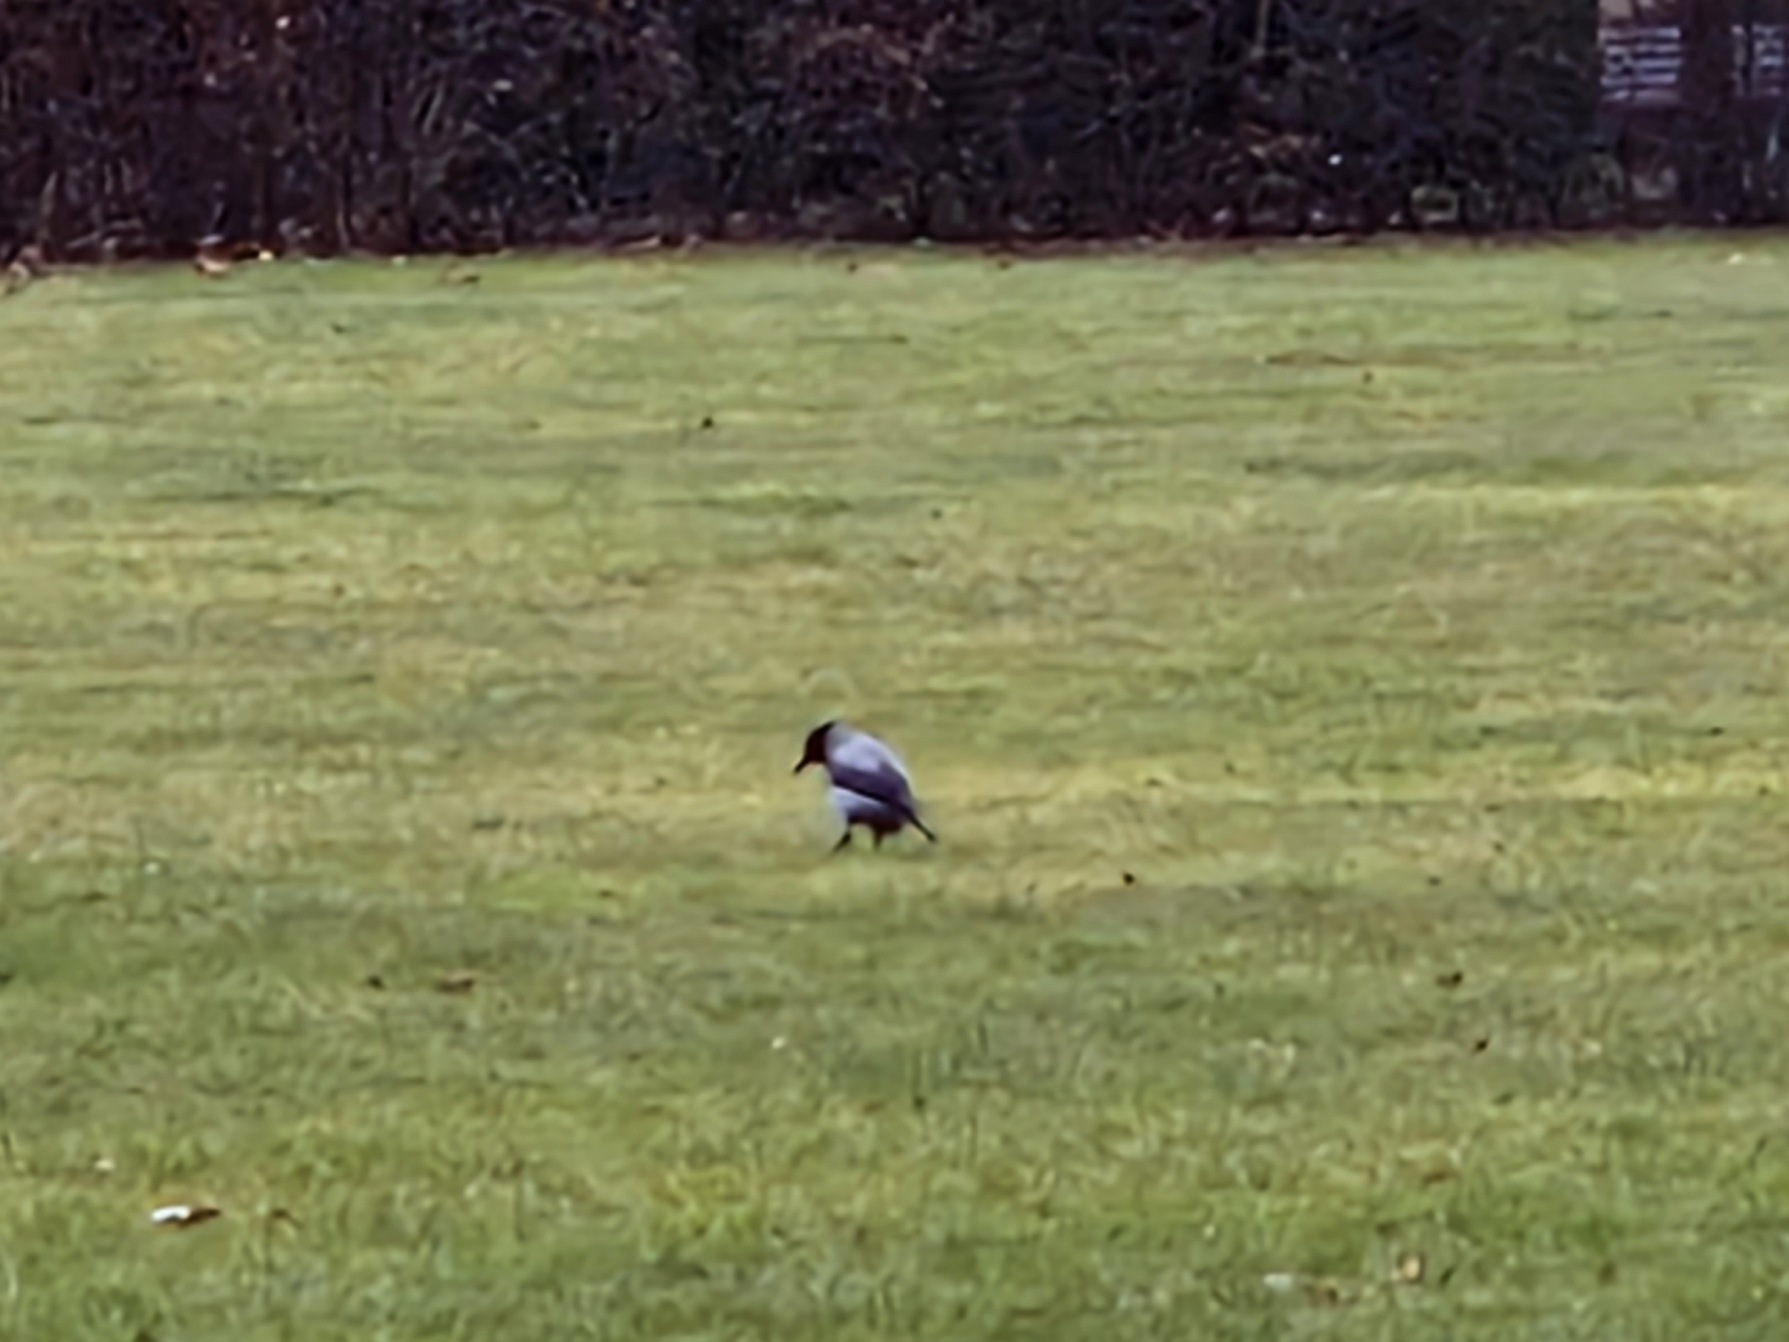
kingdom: Animalia
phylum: Chordata
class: Aves
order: Passeriformes
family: Corvidae
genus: Corvus
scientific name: Corvus cornix
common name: Gråkrage
